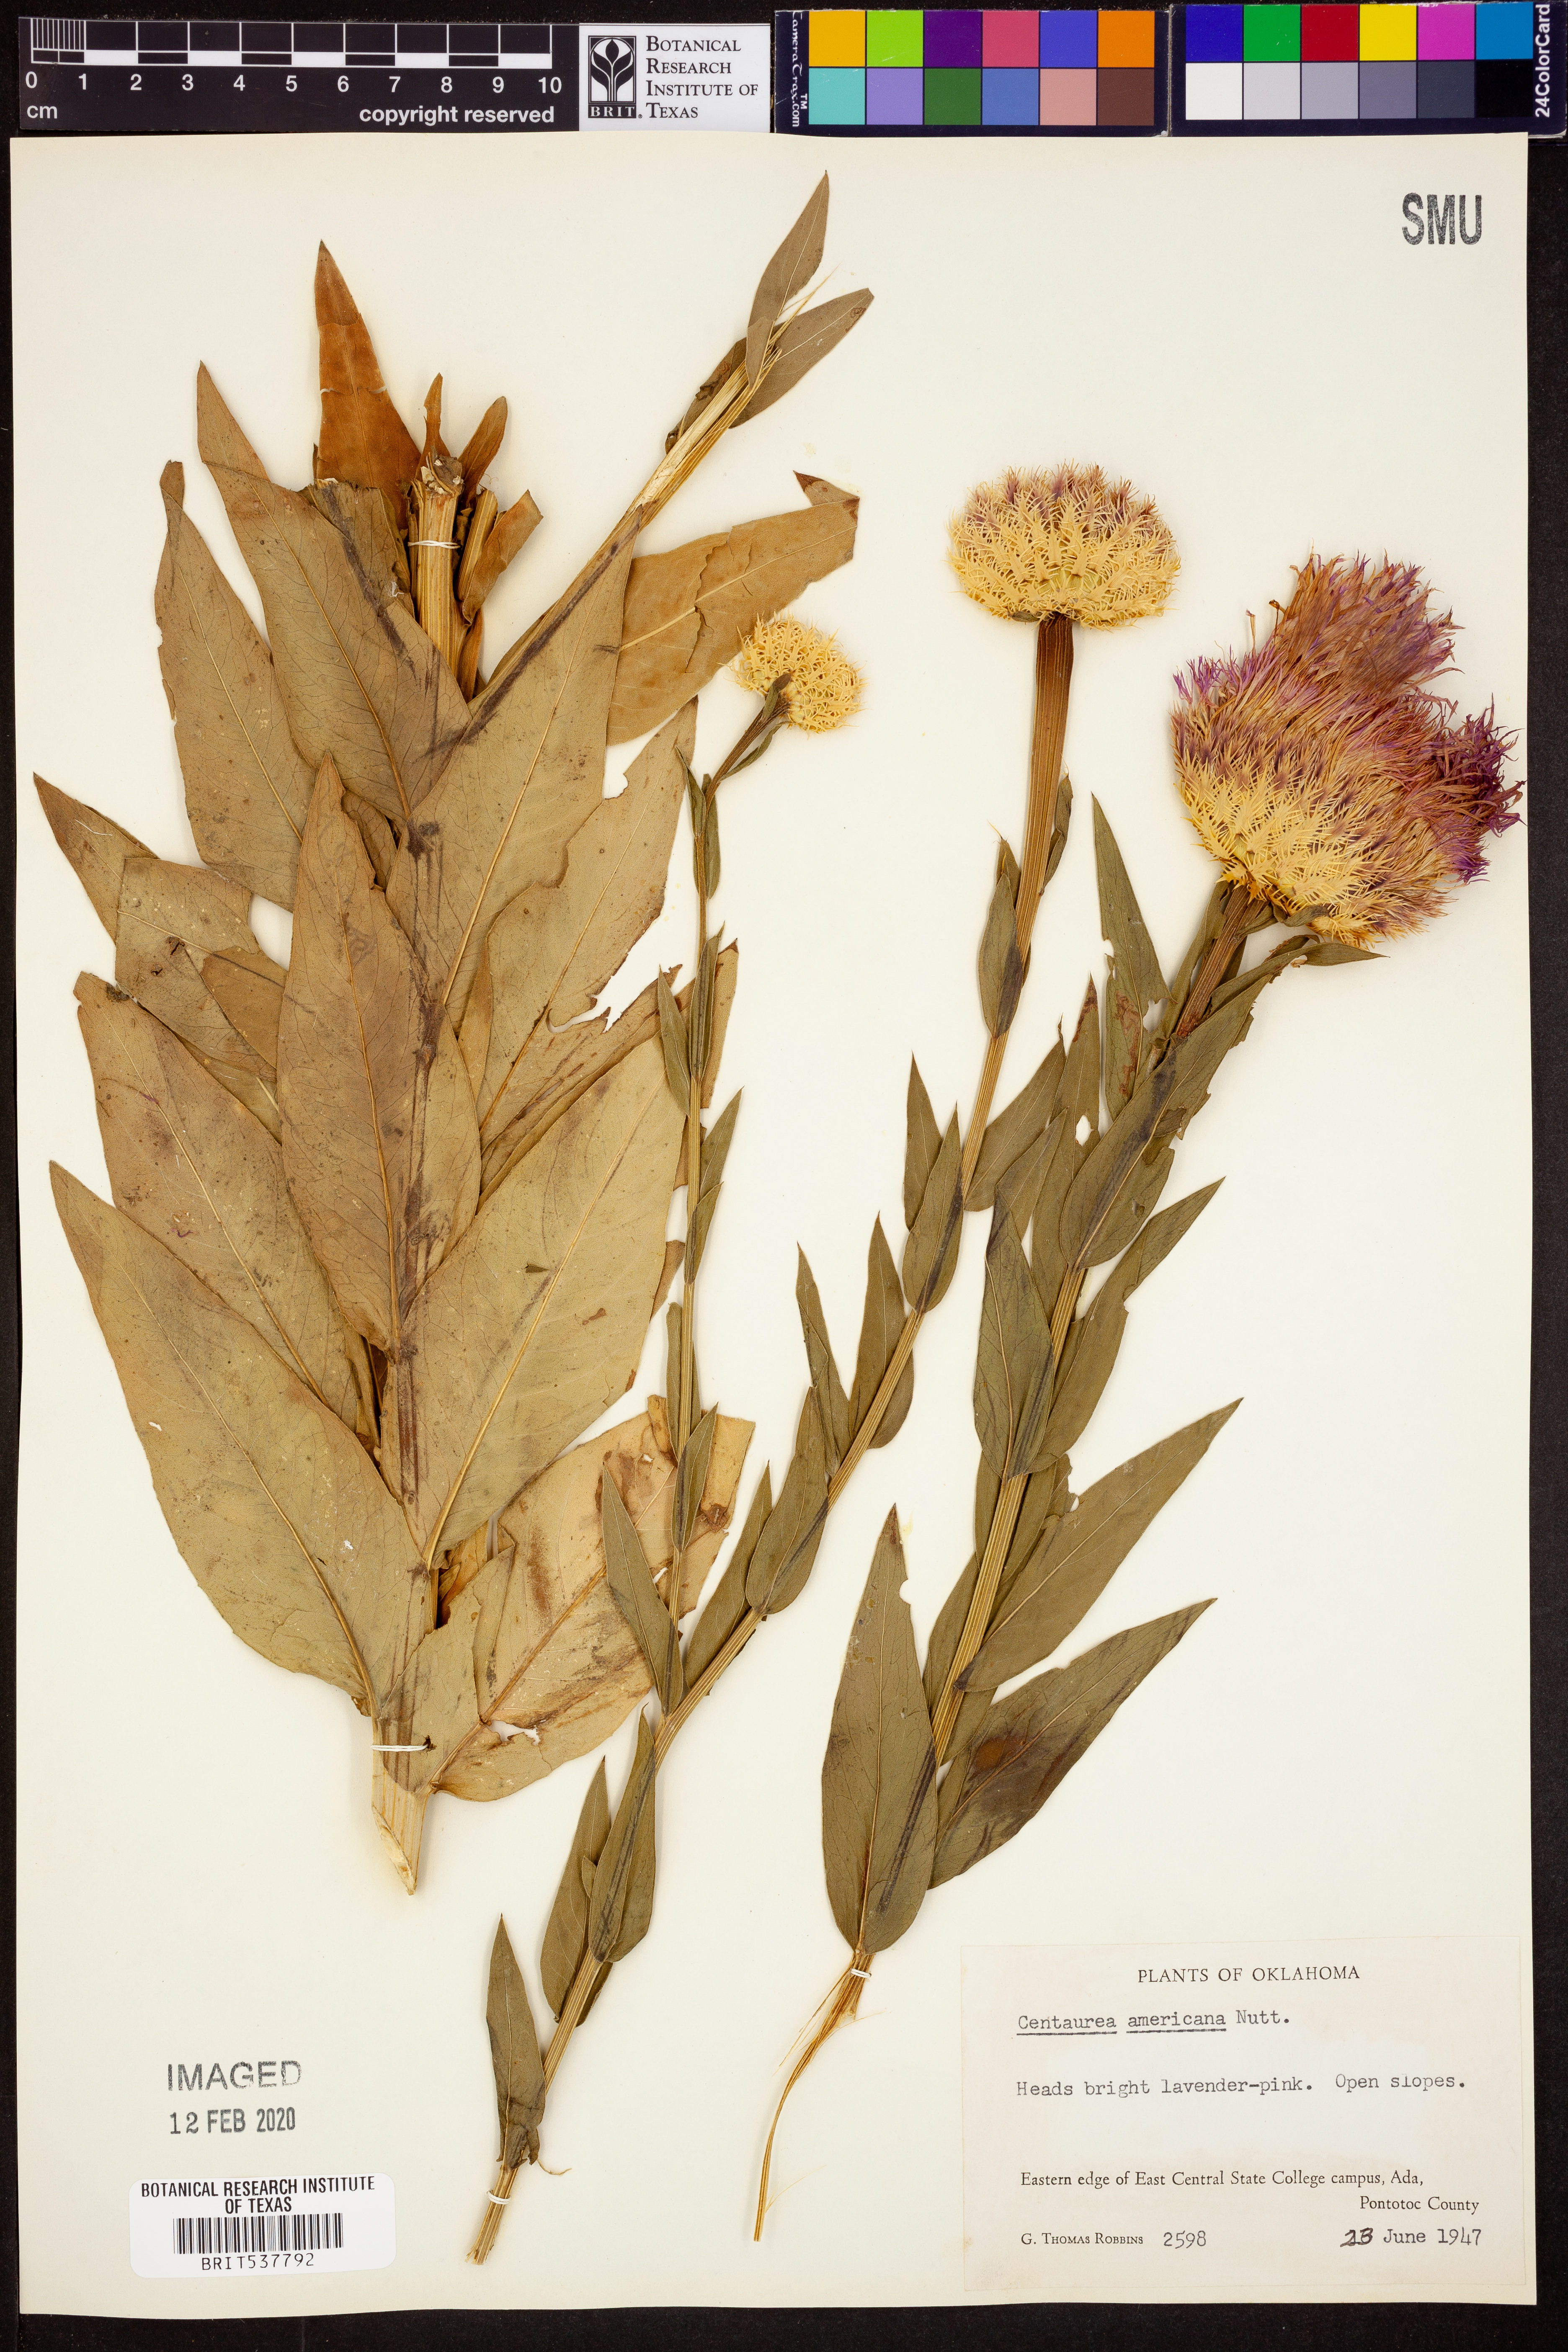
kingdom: Plantae
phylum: Tracheophyta
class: Magnoliopsida
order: Asterales
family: Asteraceae
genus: Plectocephalus
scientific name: Plectocephalus americanus
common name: American basket-flower
